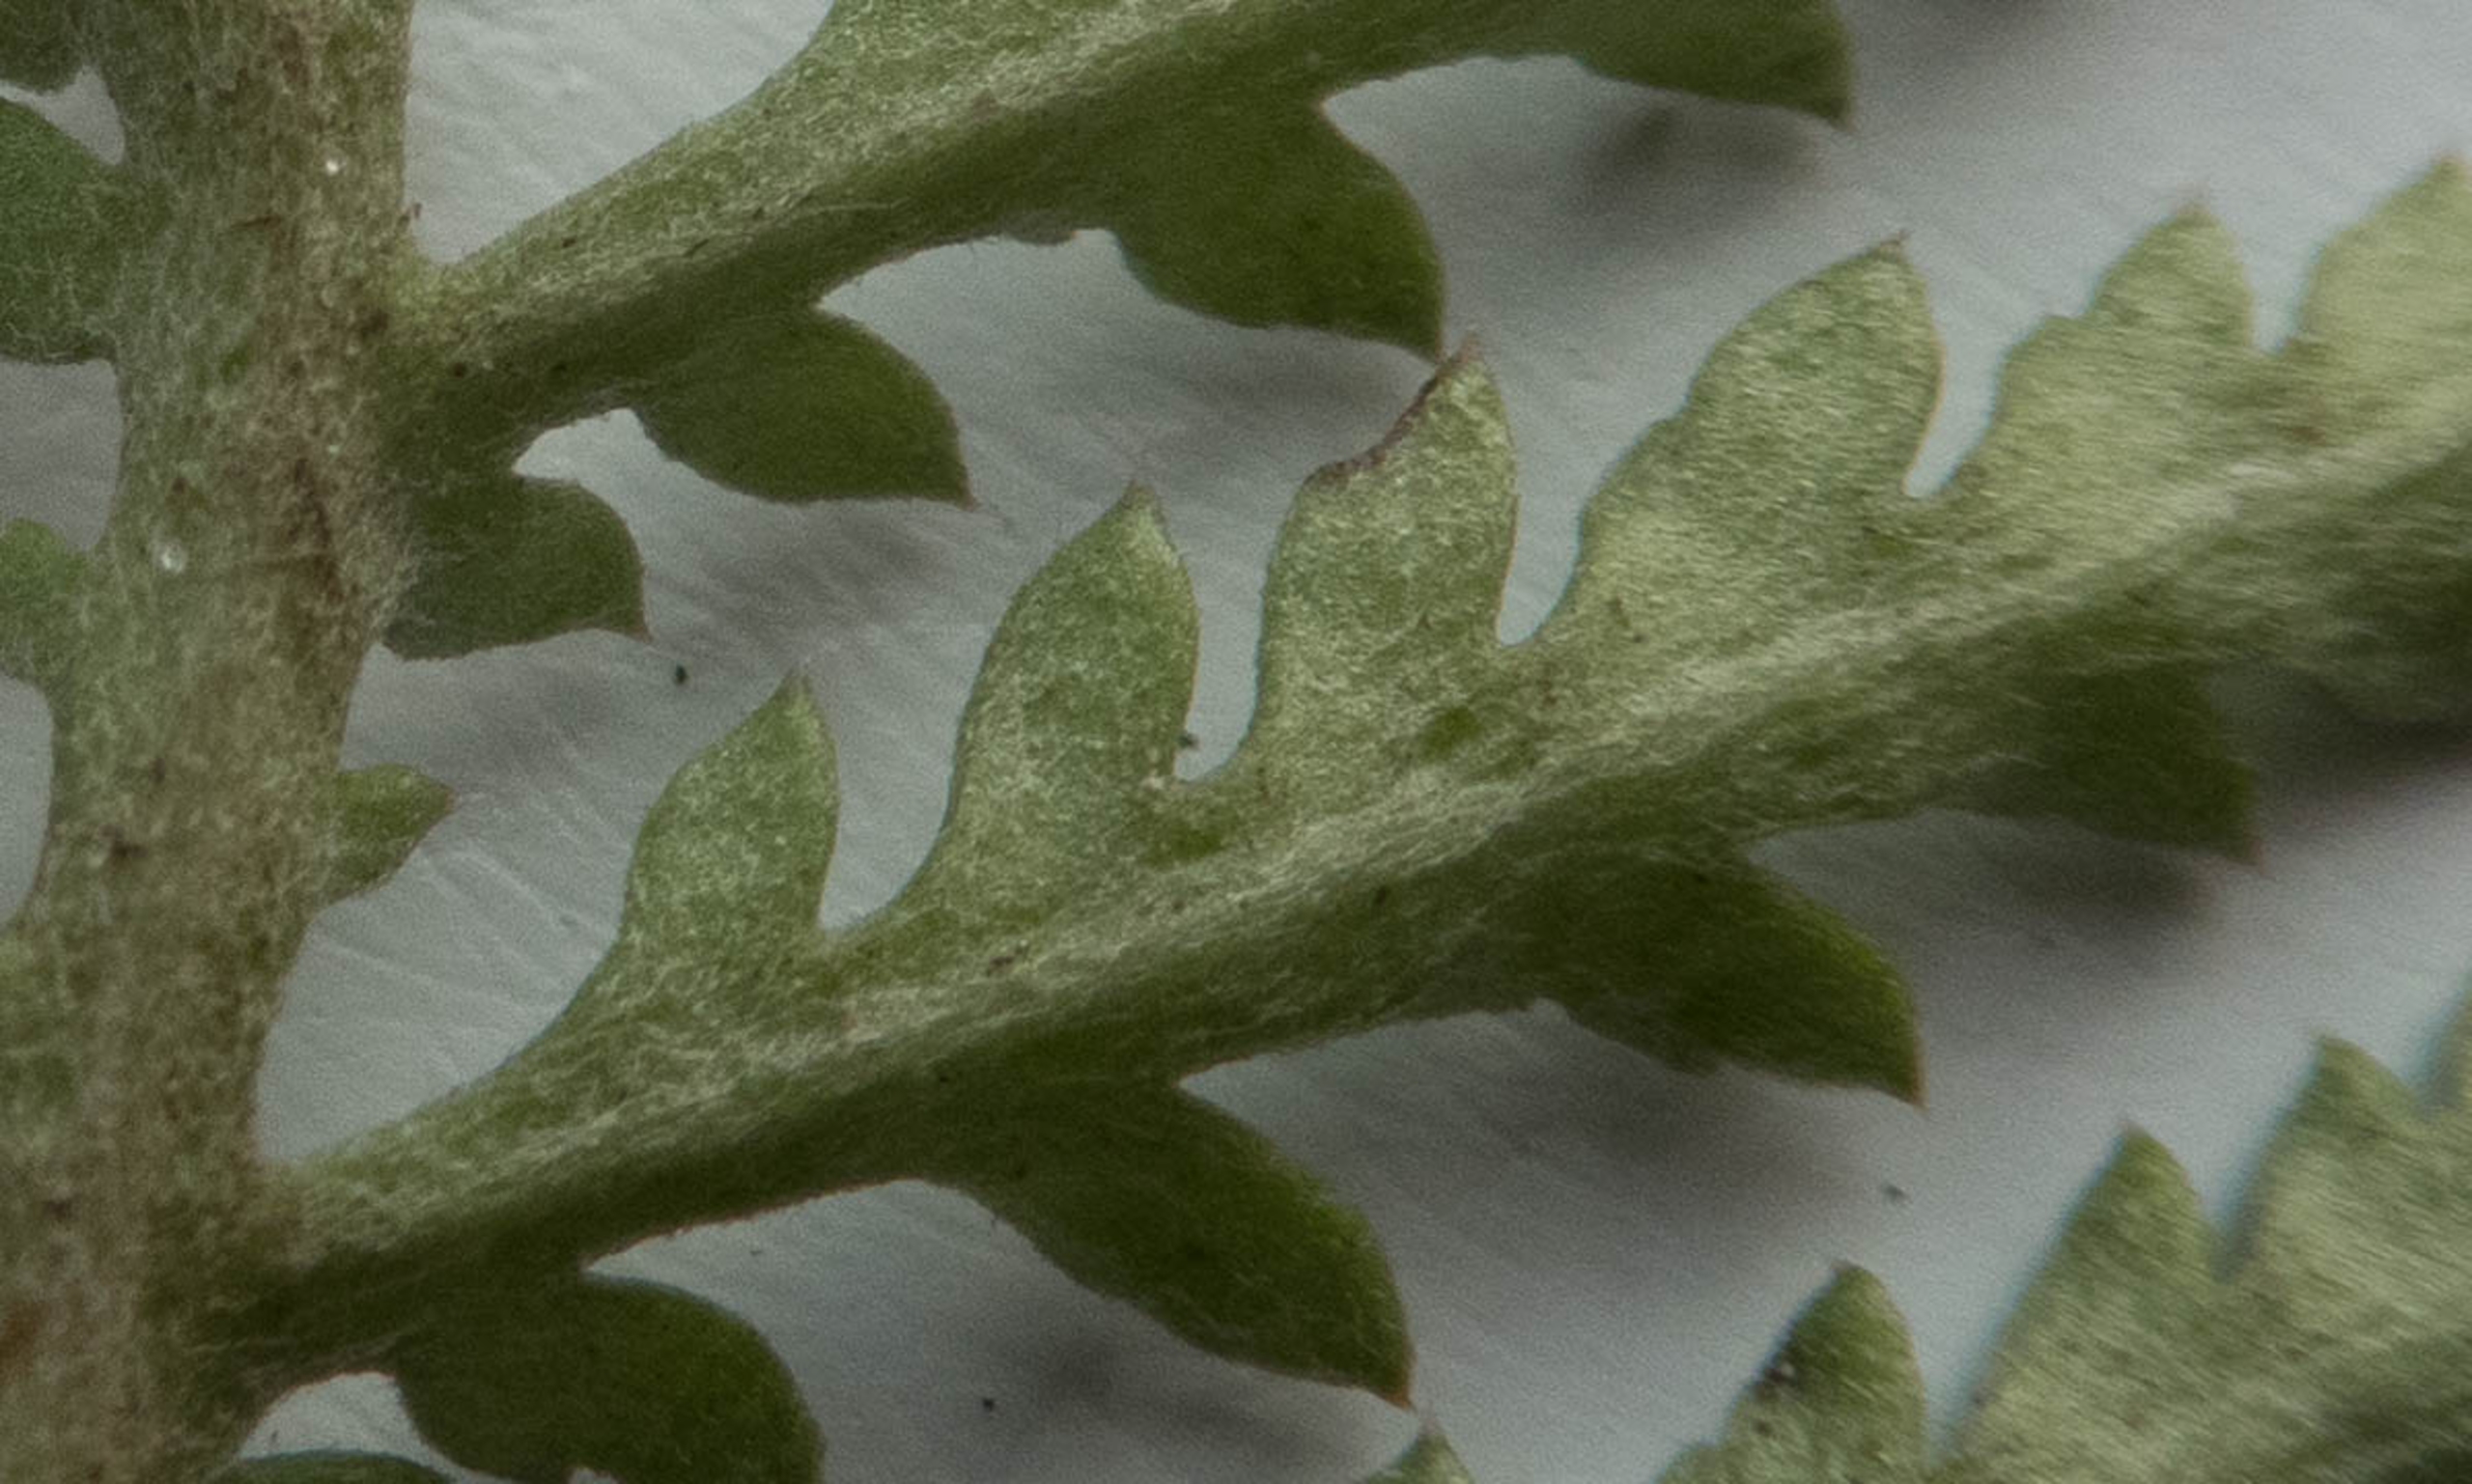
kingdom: Plantae
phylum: Tracheophyta
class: Magnoliopsida
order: Asterales
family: Asteraceae
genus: Cota
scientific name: Cota tinctoria
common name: Farve-gåseurt
